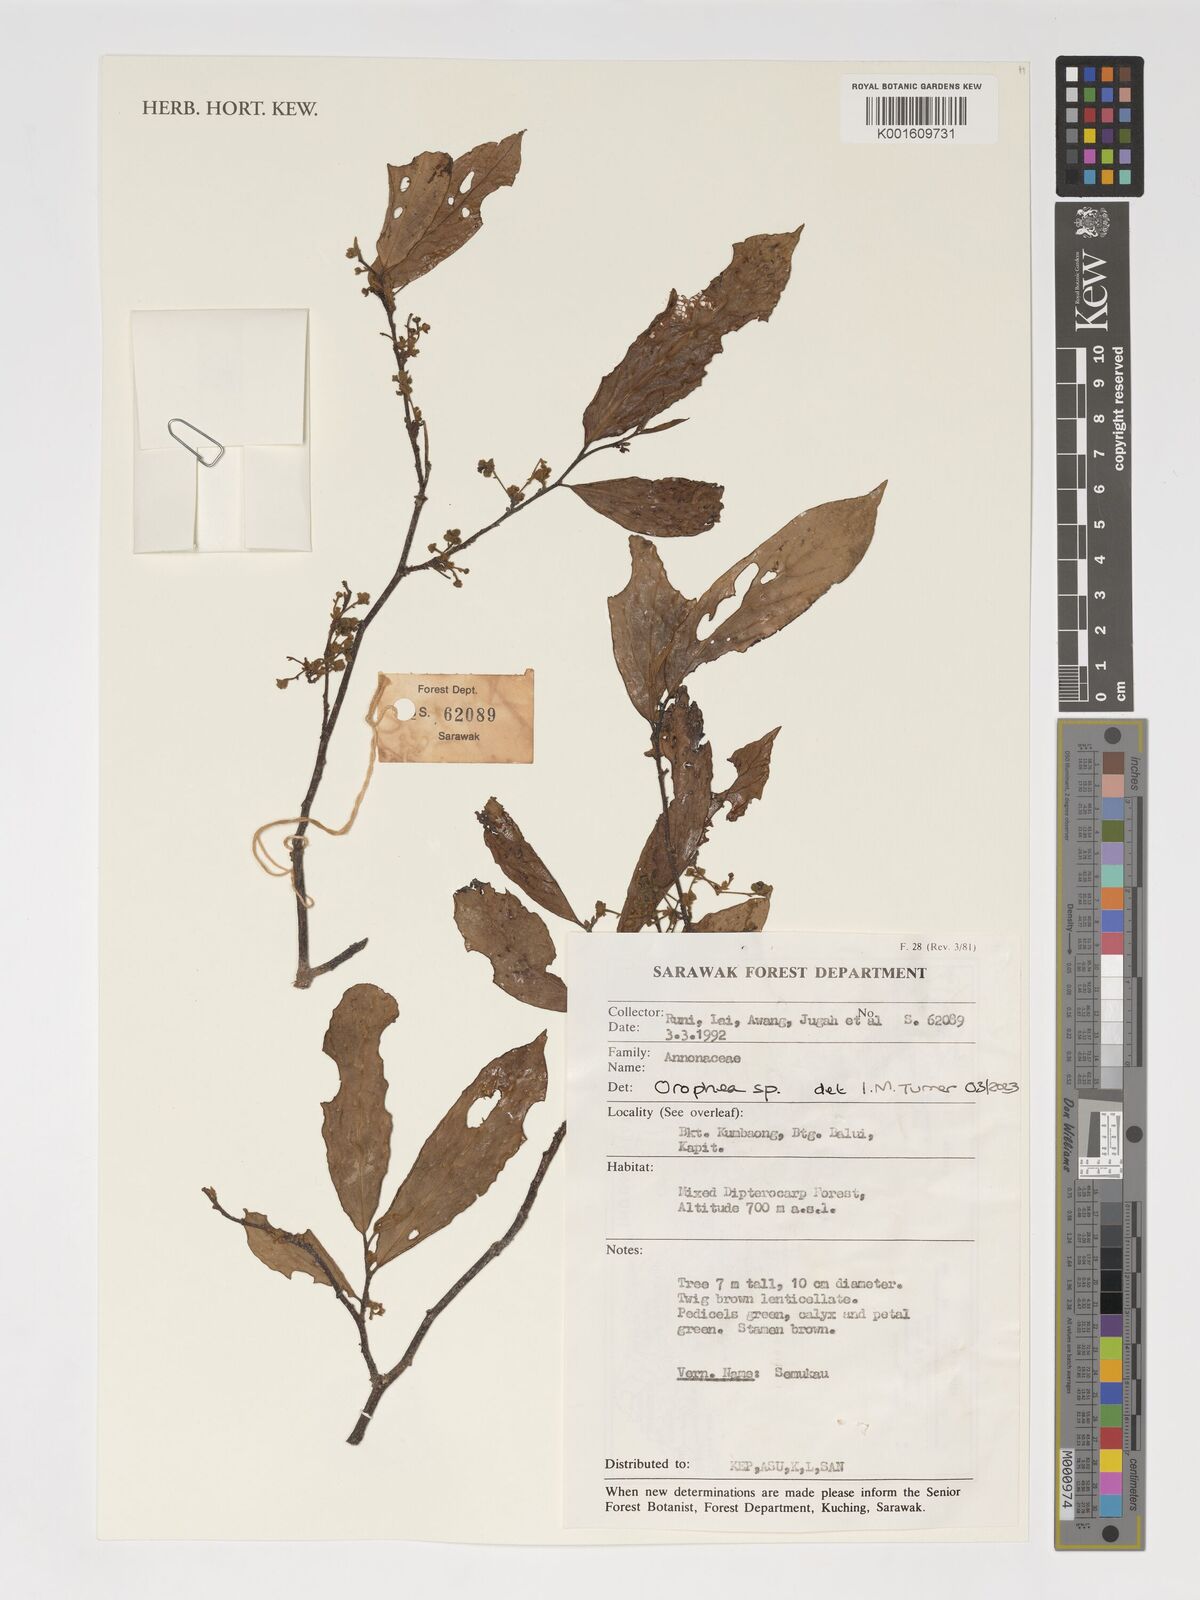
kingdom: Plantae
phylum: Tracheophyta
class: Magnoliopsida
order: Magnoliales
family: Annonaceae
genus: Orophea
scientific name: Orophea
